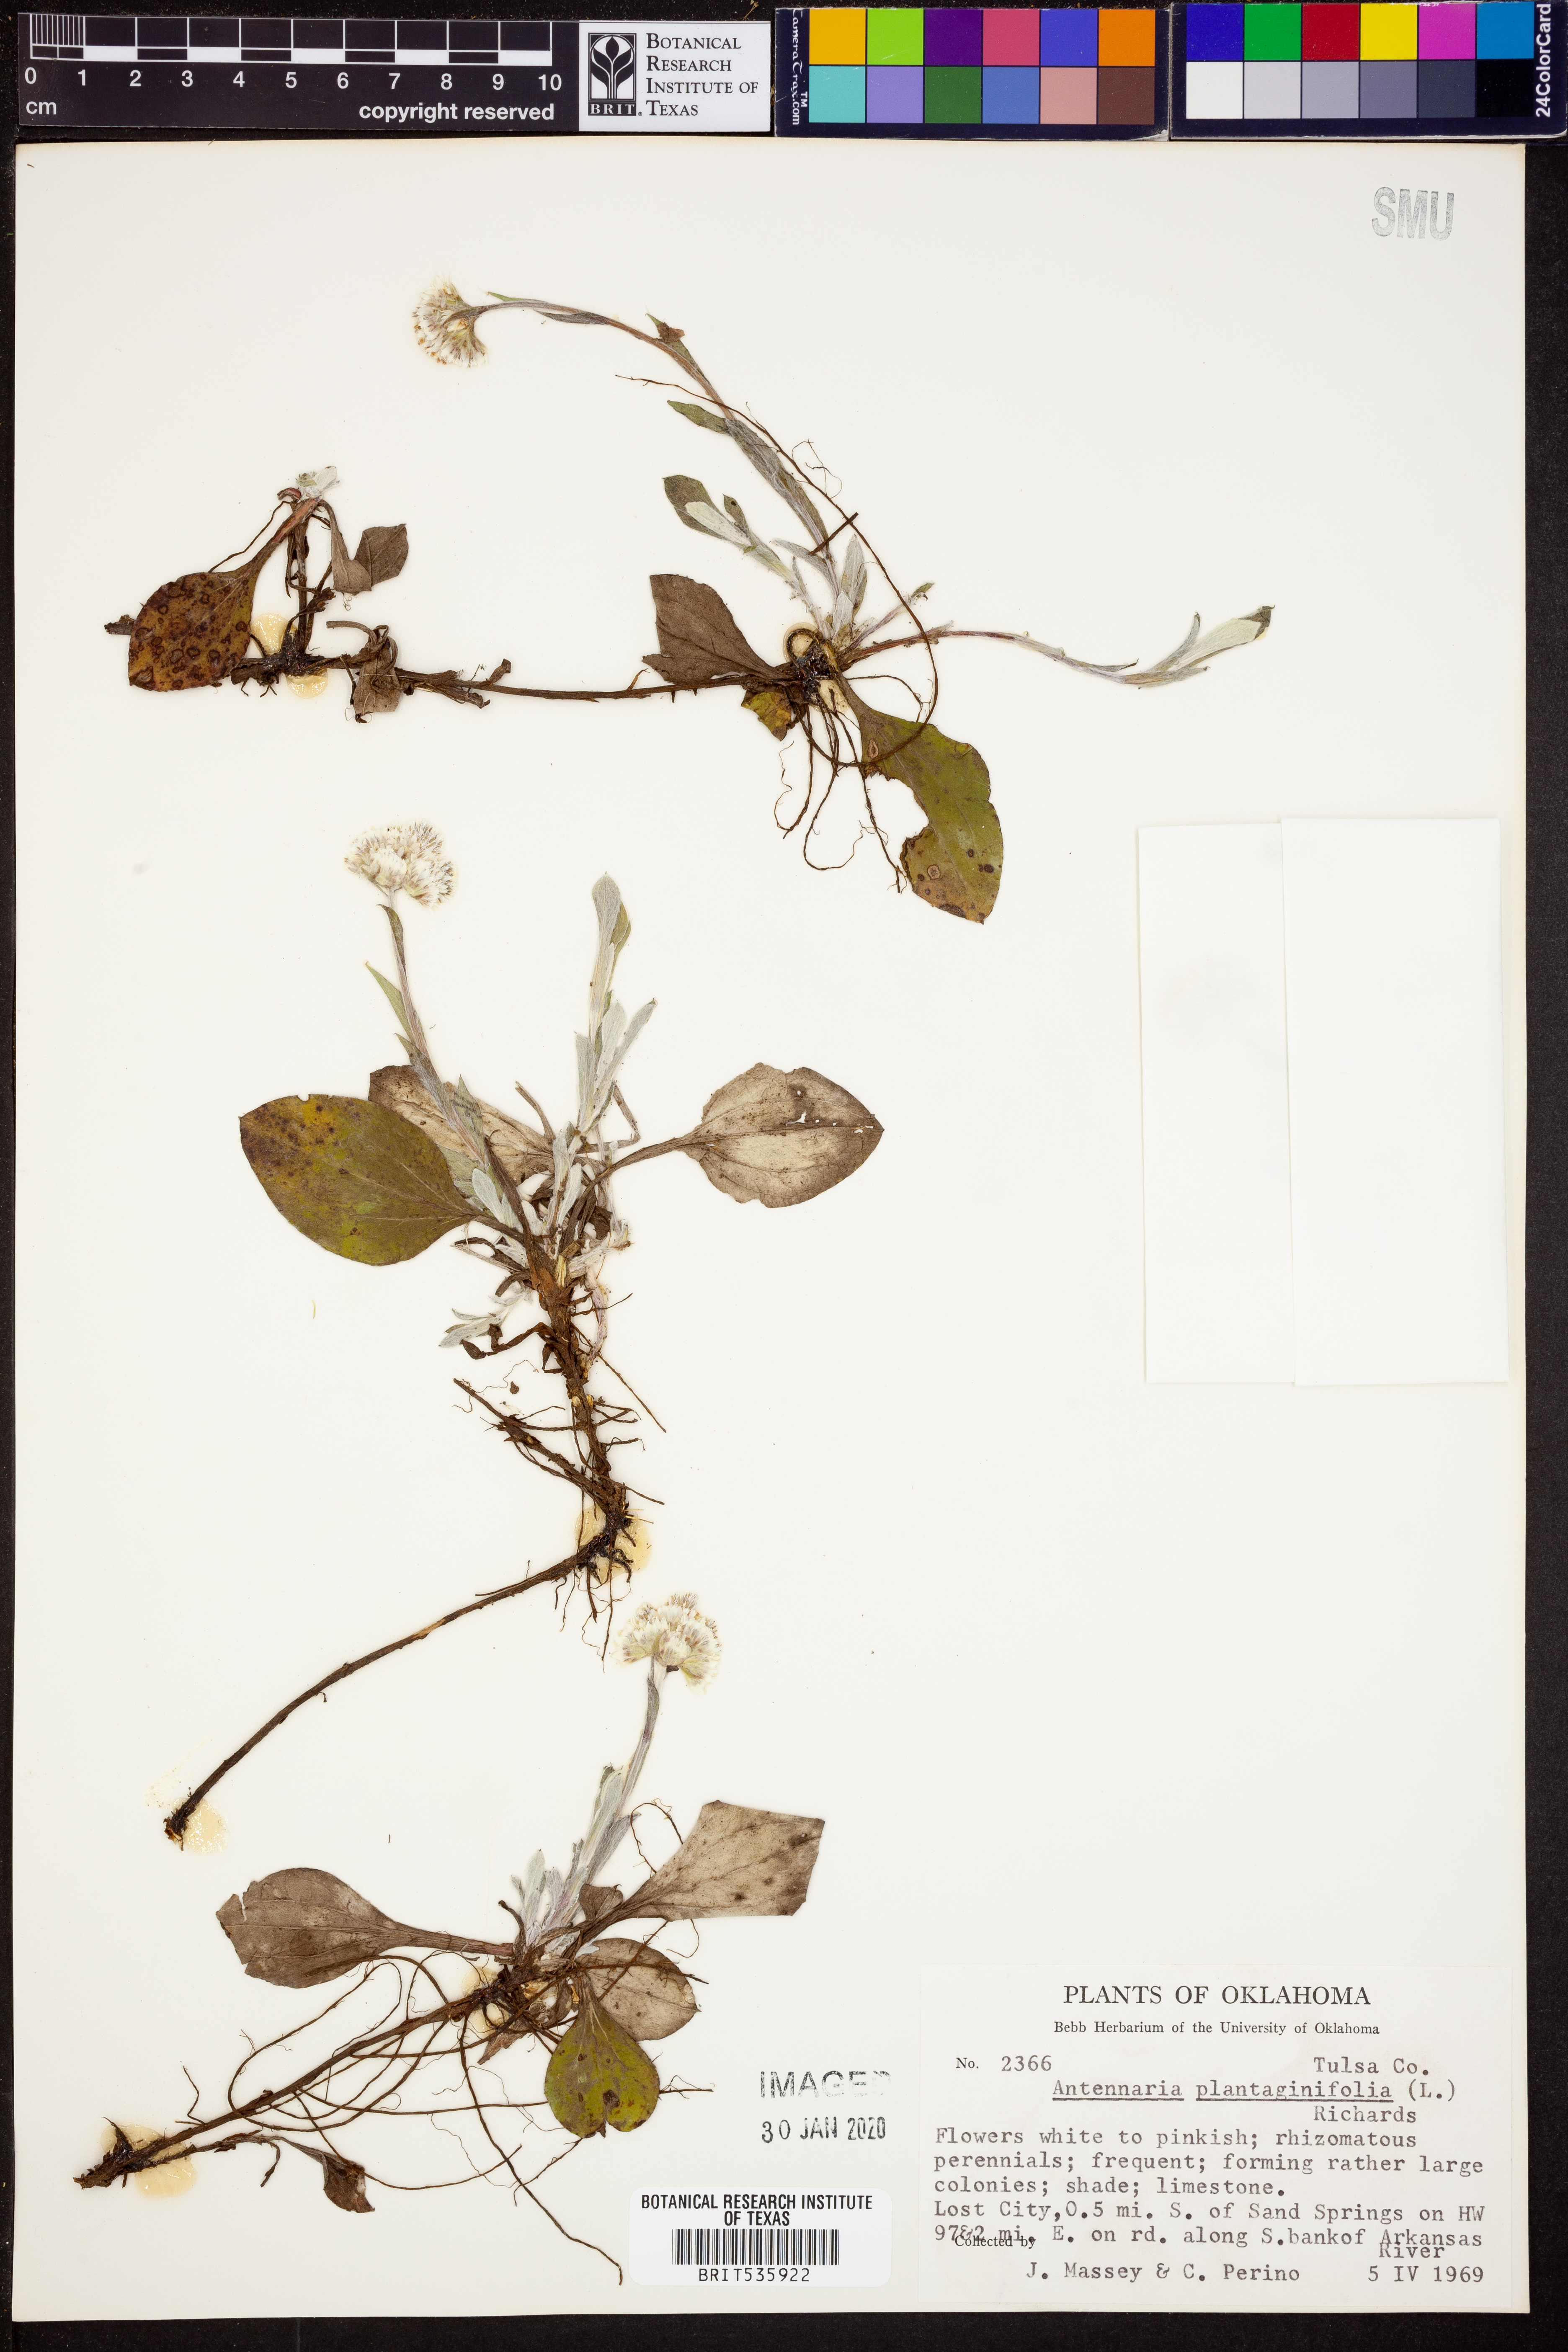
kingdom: Plantae
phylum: Tracheophyta
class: Magnoliopsida
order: Asterales
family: Asteraceae
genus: Antennaria
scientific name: Antennaria plantaginifolia
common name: Plantain-leaved pussytoes
